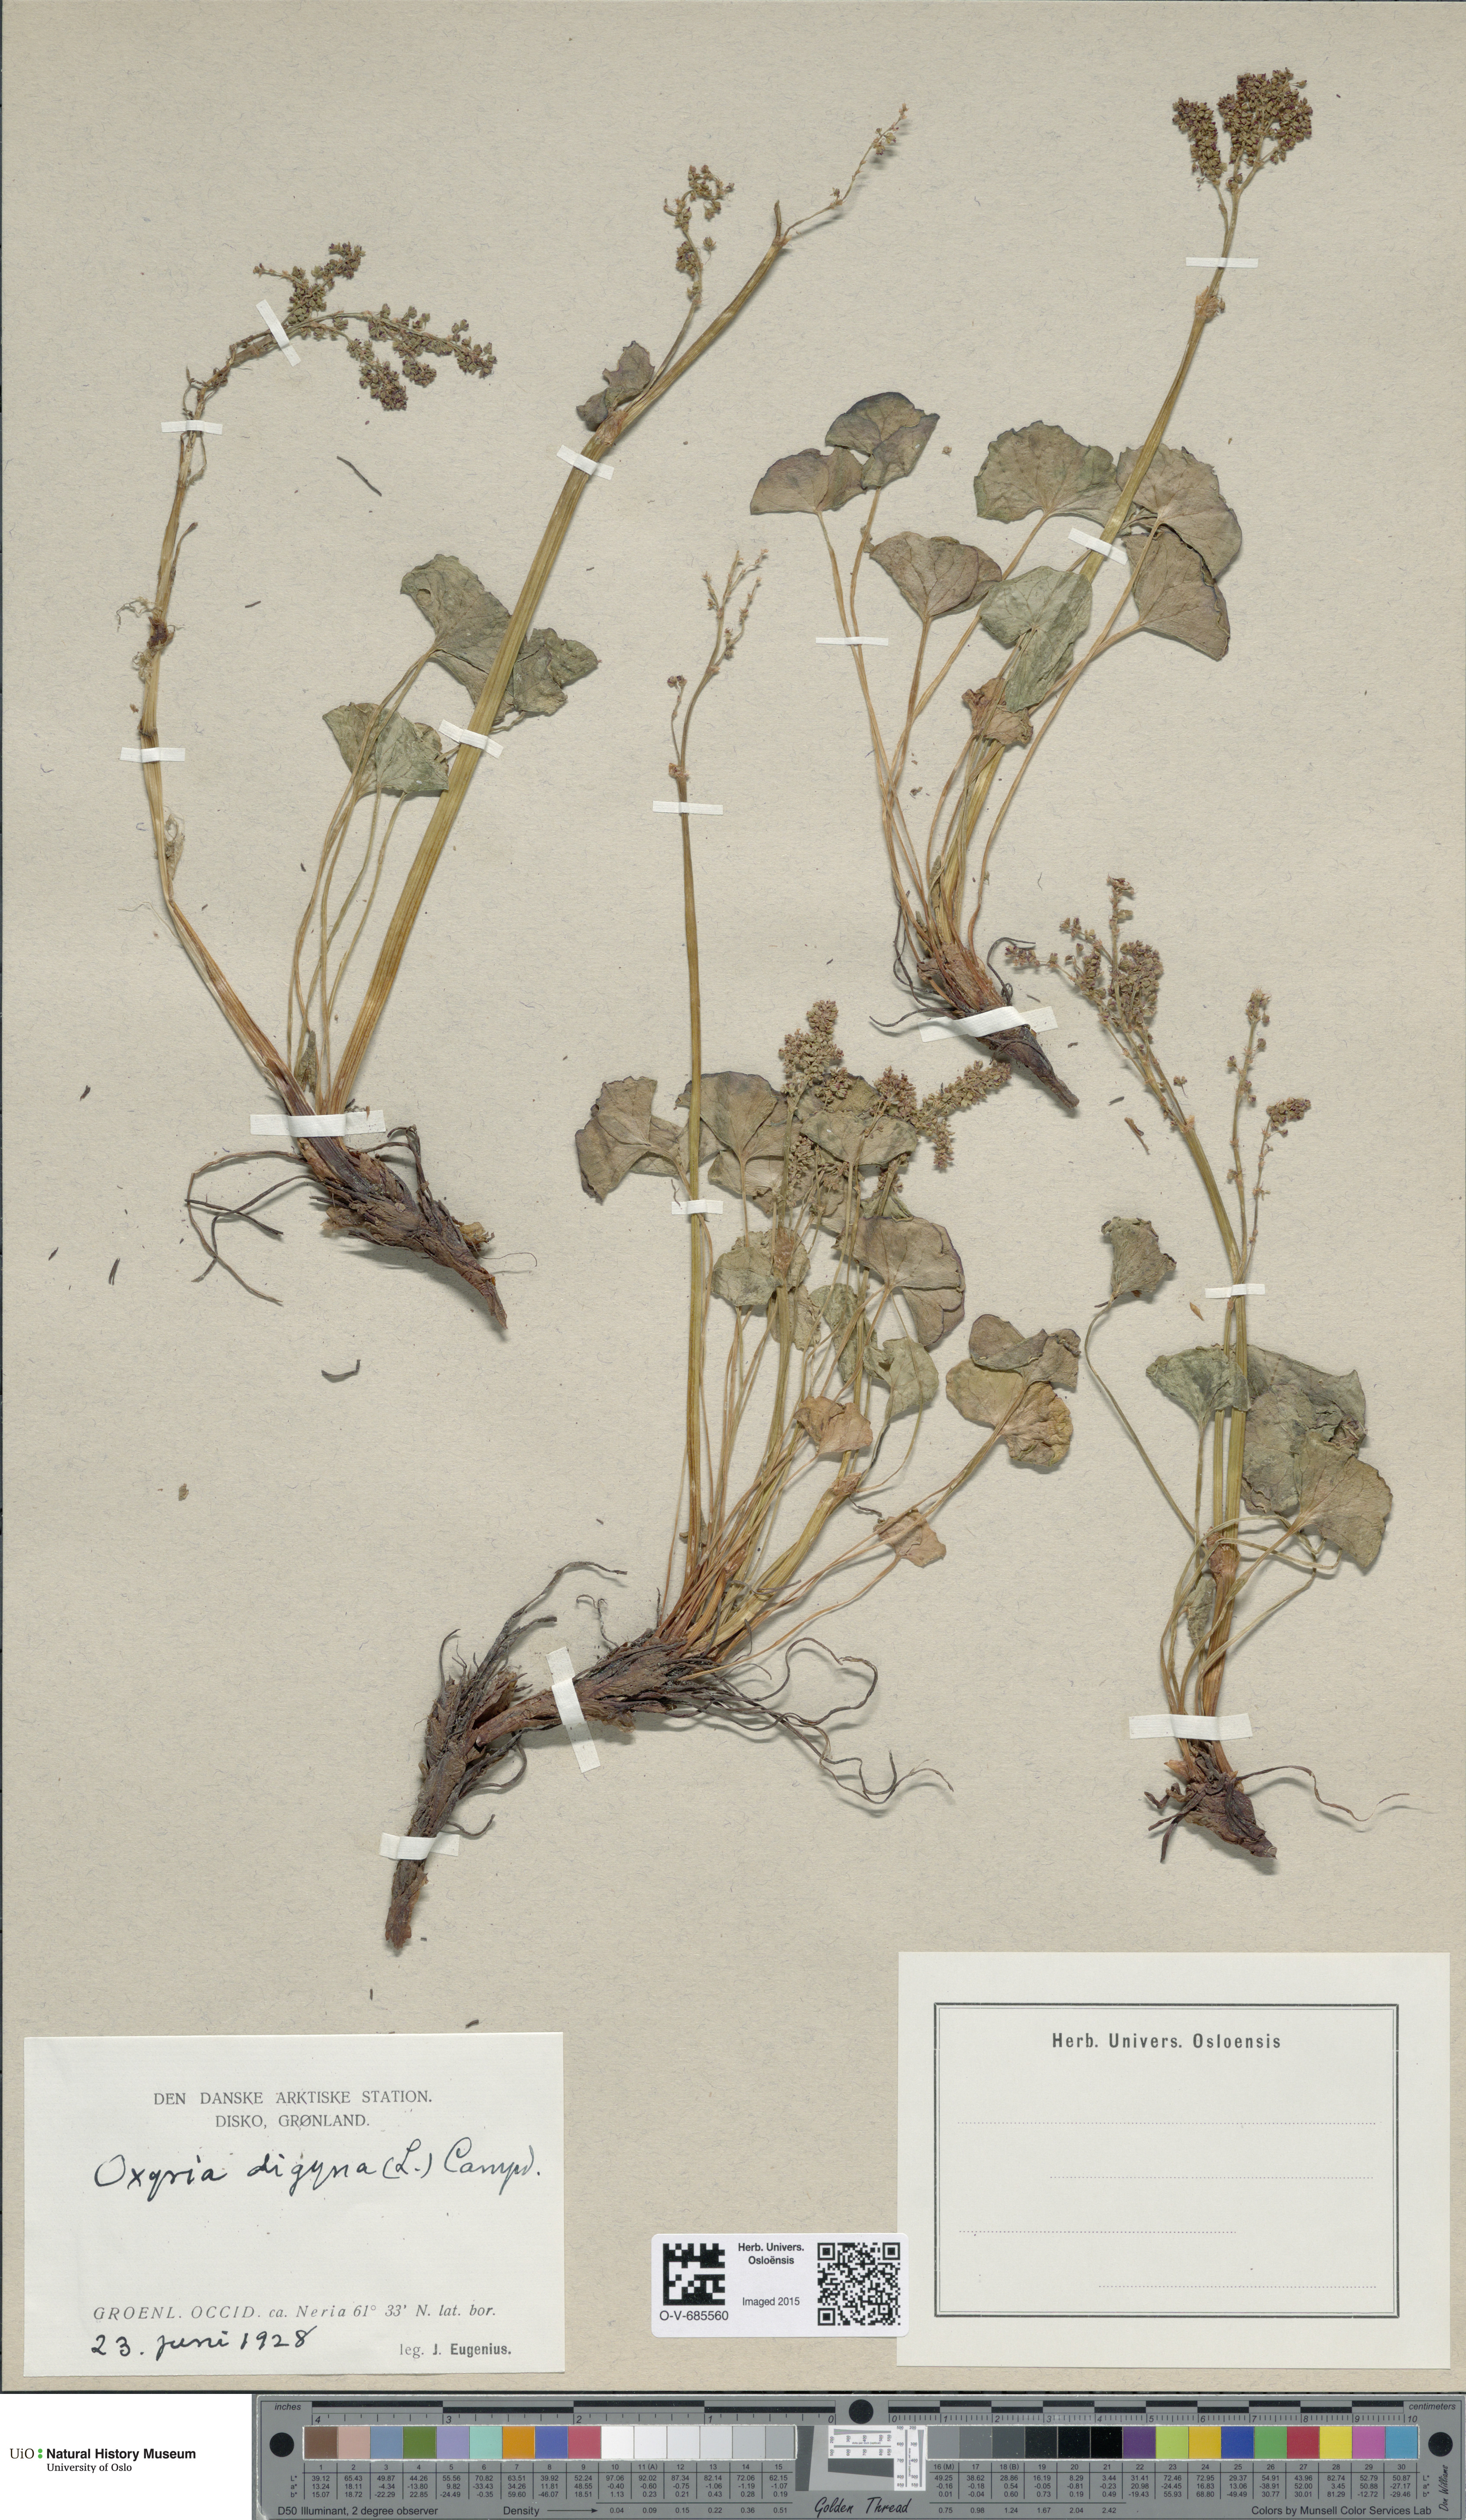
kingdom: Plantae
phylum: Tracheophyta
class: Magnoliopsida
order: Caryophyllales
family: Polygonaceae
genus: Oxyria
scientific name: Oxyria digyna
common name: Alpine mountain-sorrel
